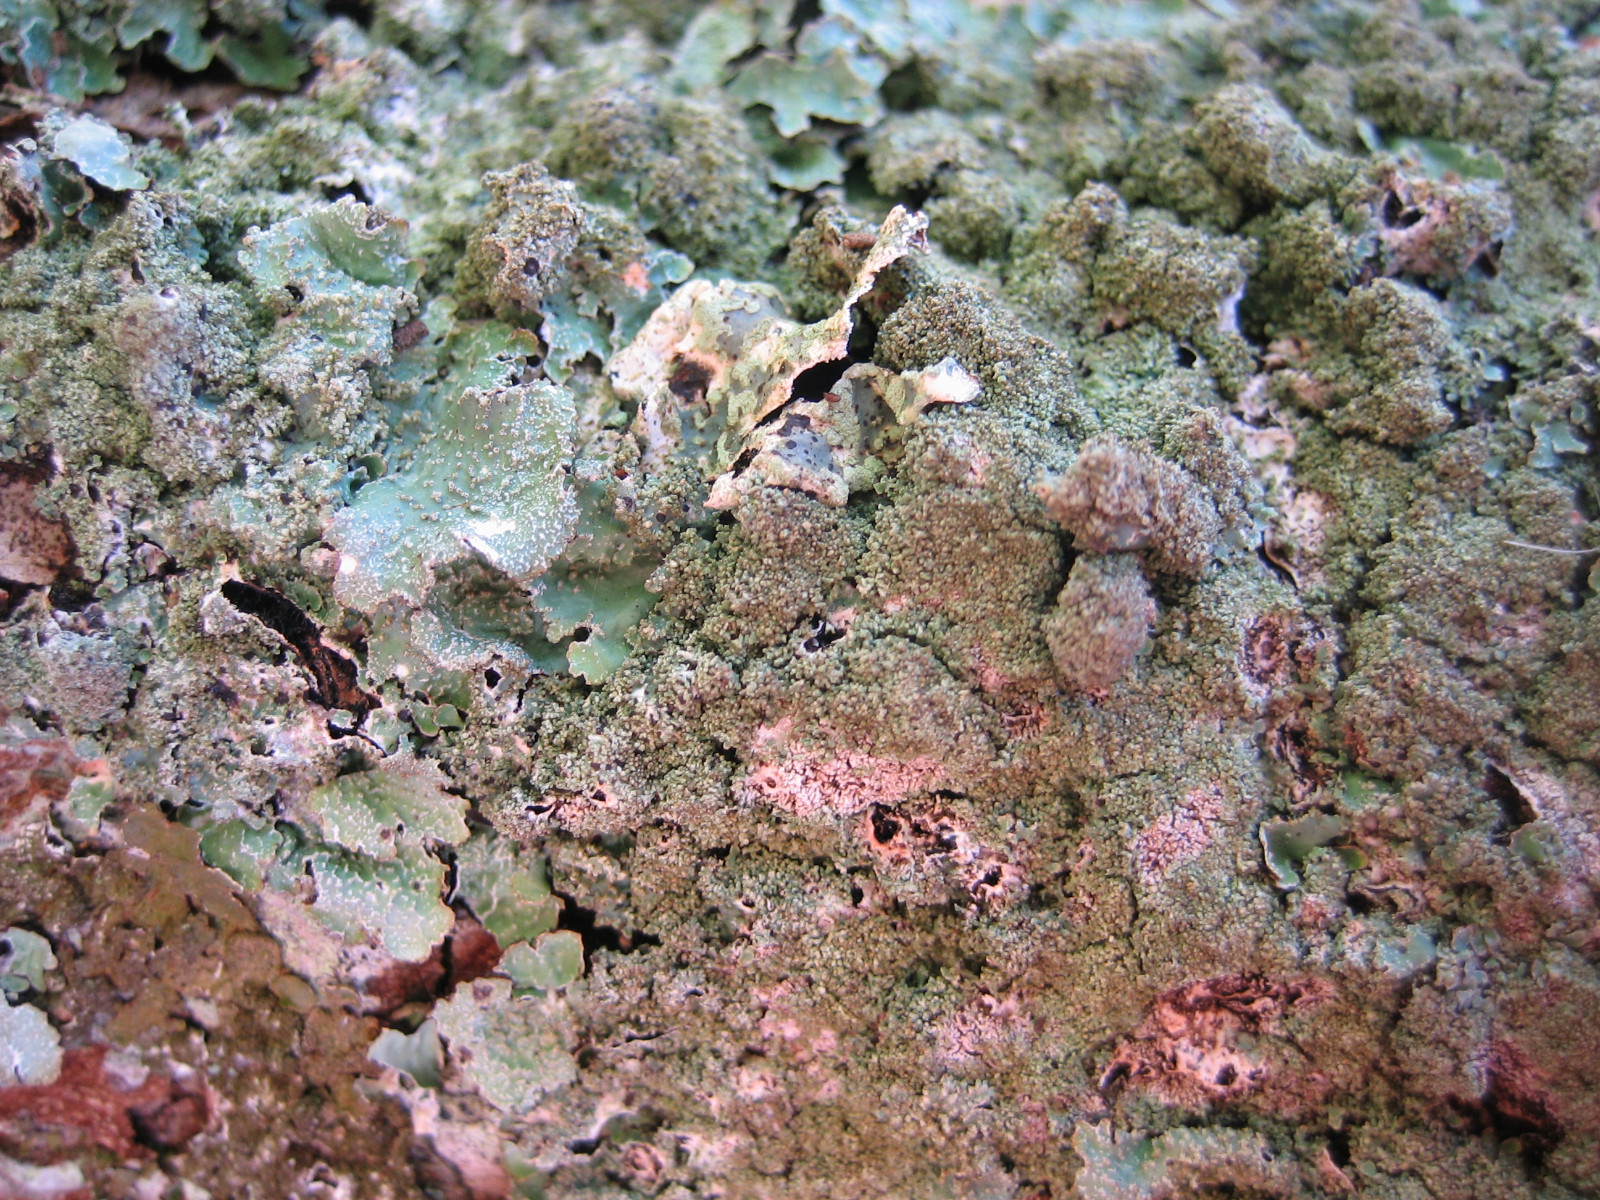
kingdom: Fungi
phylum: Ascomycota
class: Lecanoromycetes
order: Lecanorales
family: Parmeliaceae
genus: Parmelia
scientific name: Parmelia
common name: farve-skållav
